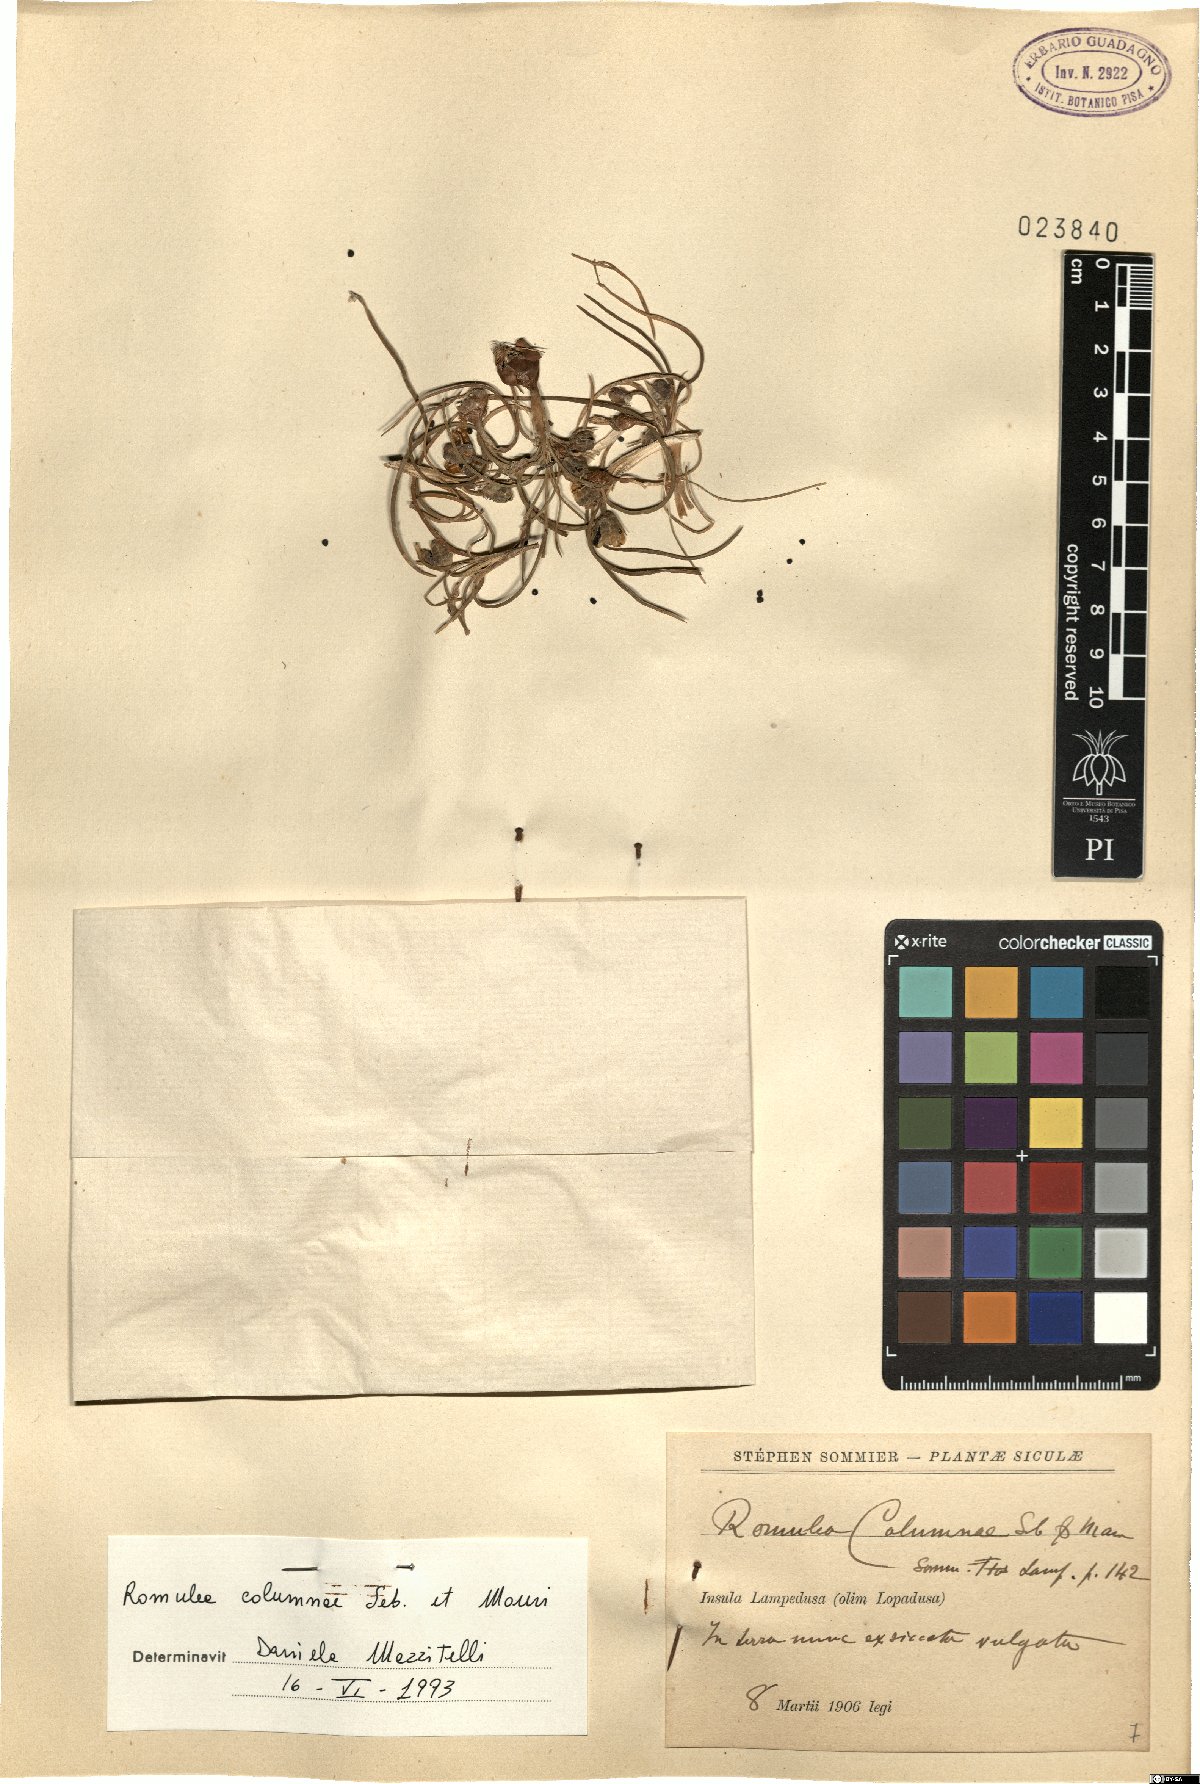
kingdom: Plantae
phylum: Tracheophyta
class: Liliopsida
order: Asparagales
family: Iridaceae
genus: Romulea
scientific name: Romulea columnae
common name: Sand-crocus
